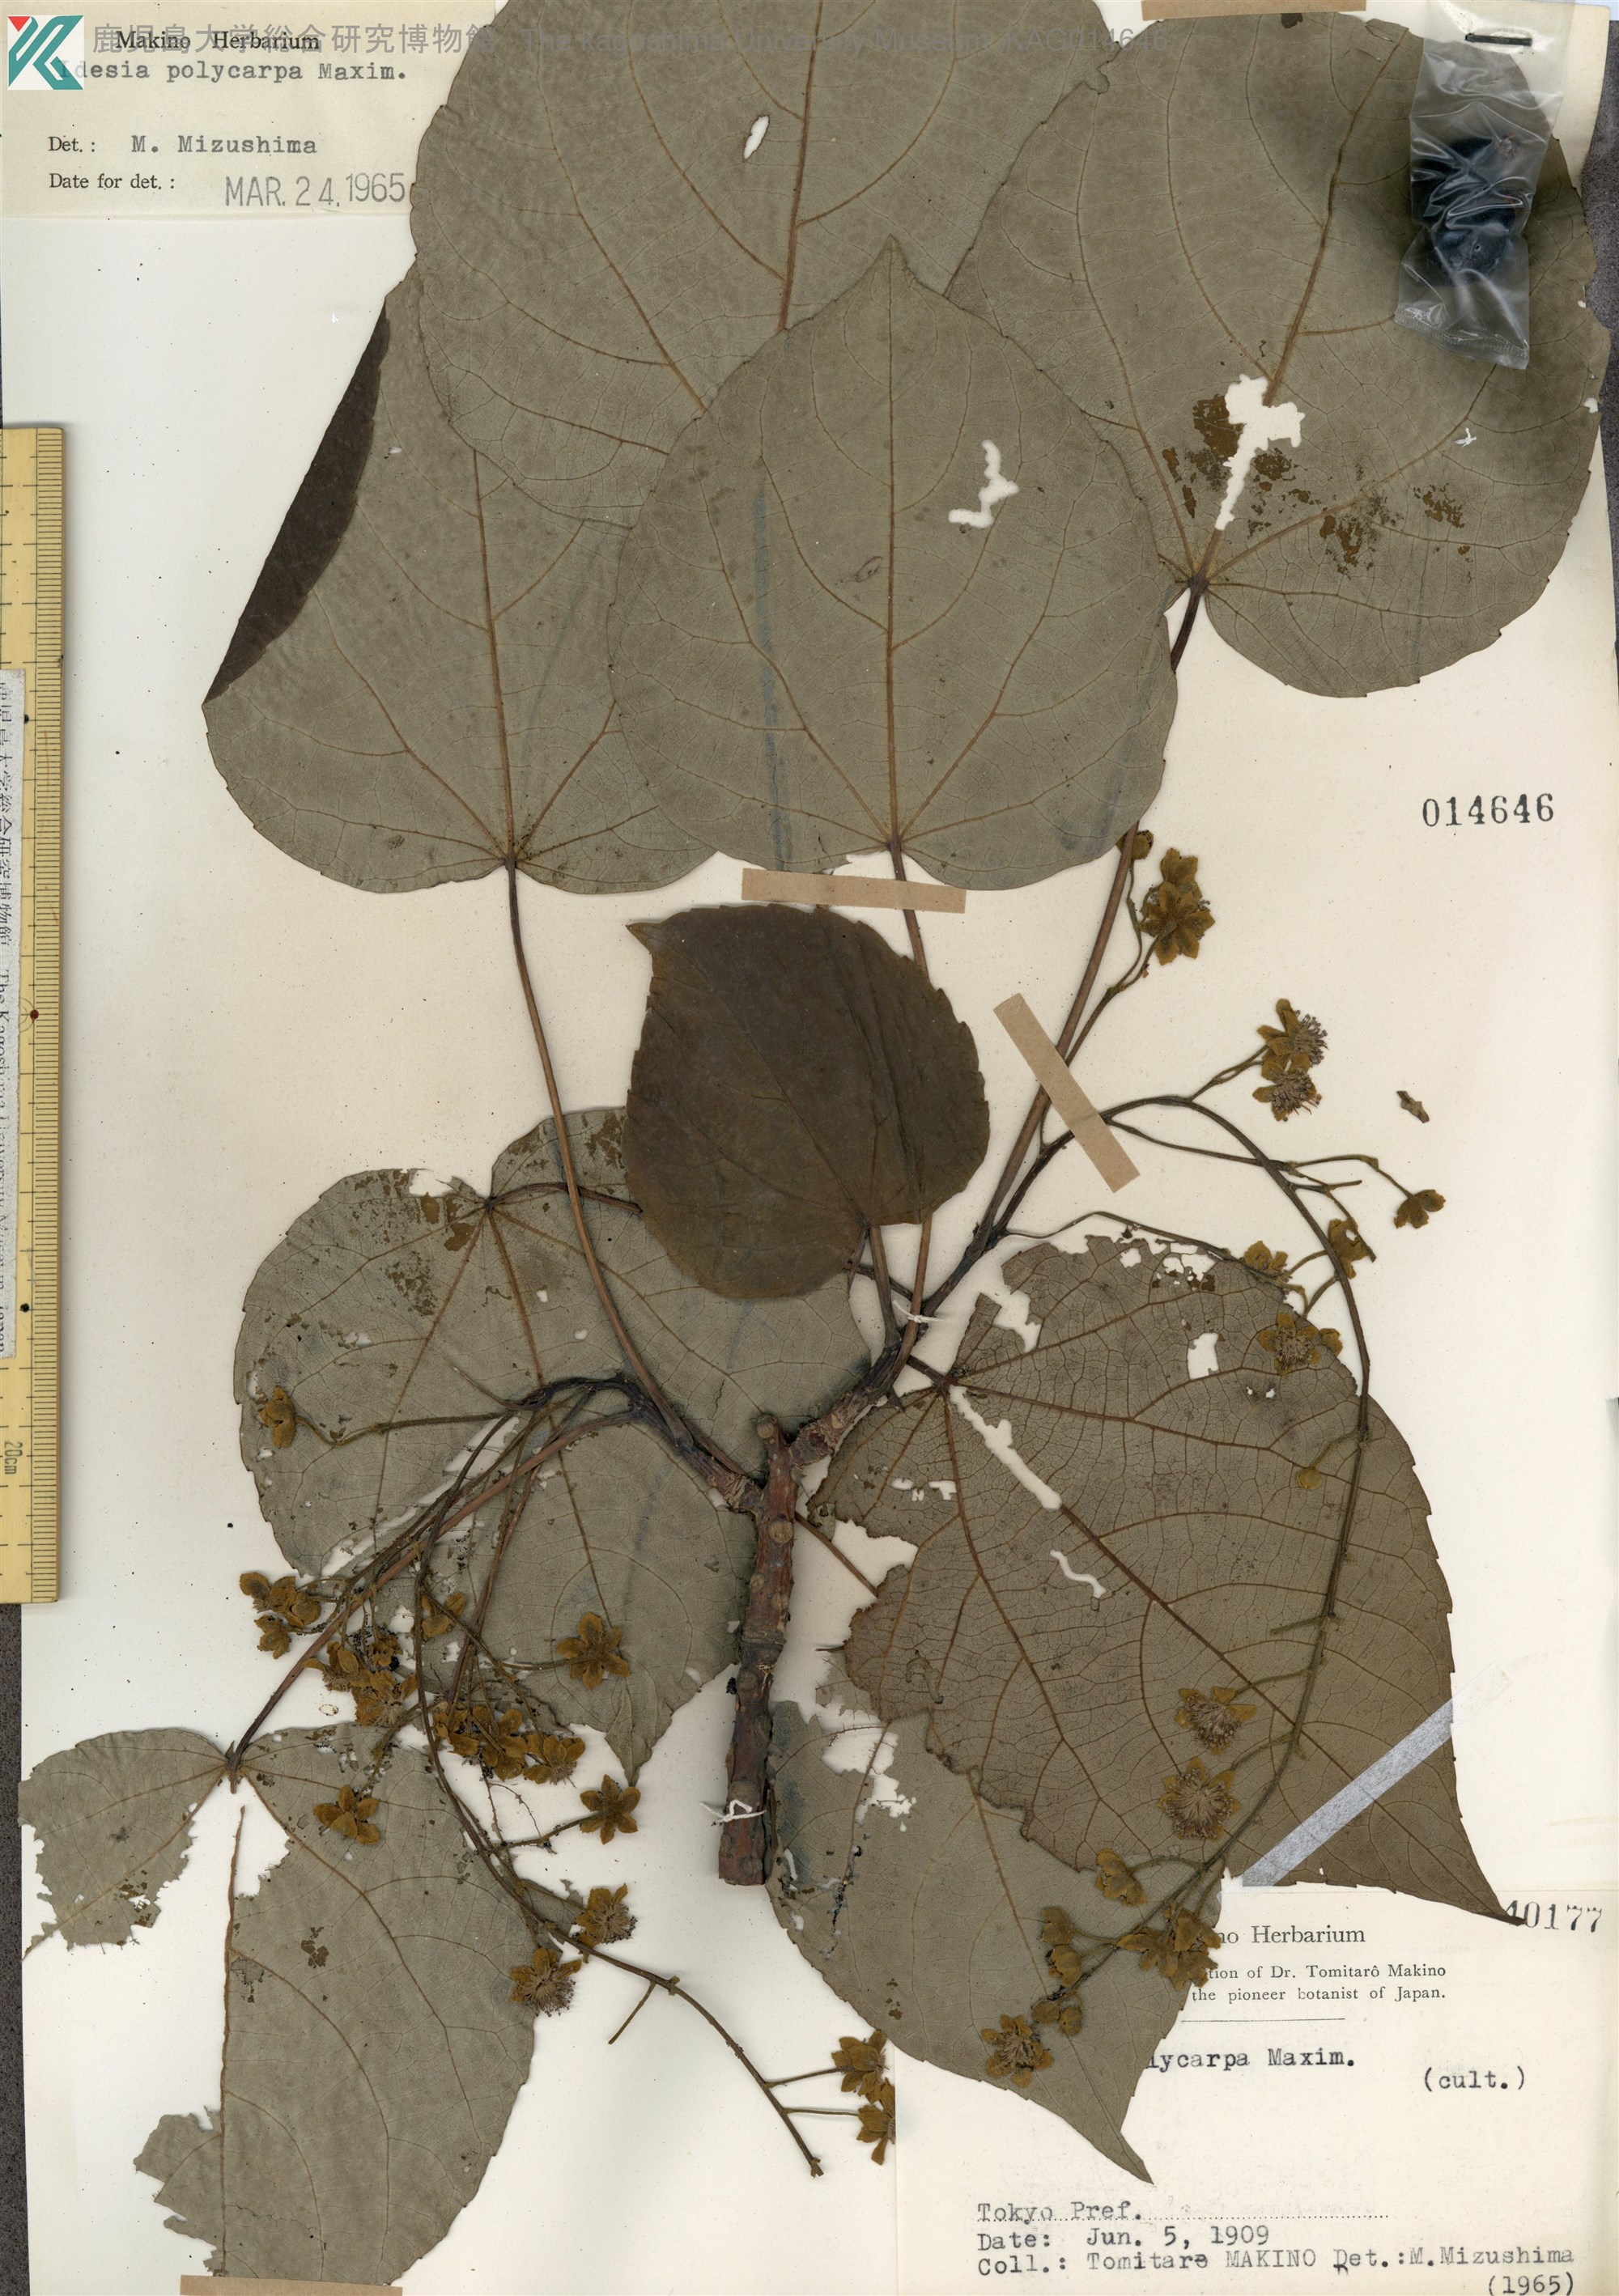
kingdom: Plantae
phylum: Tracheophyta
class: Magnoliopsida
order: Malpighiales
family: Salicaceae
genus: Idesia
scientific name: Idesia polycarpa
